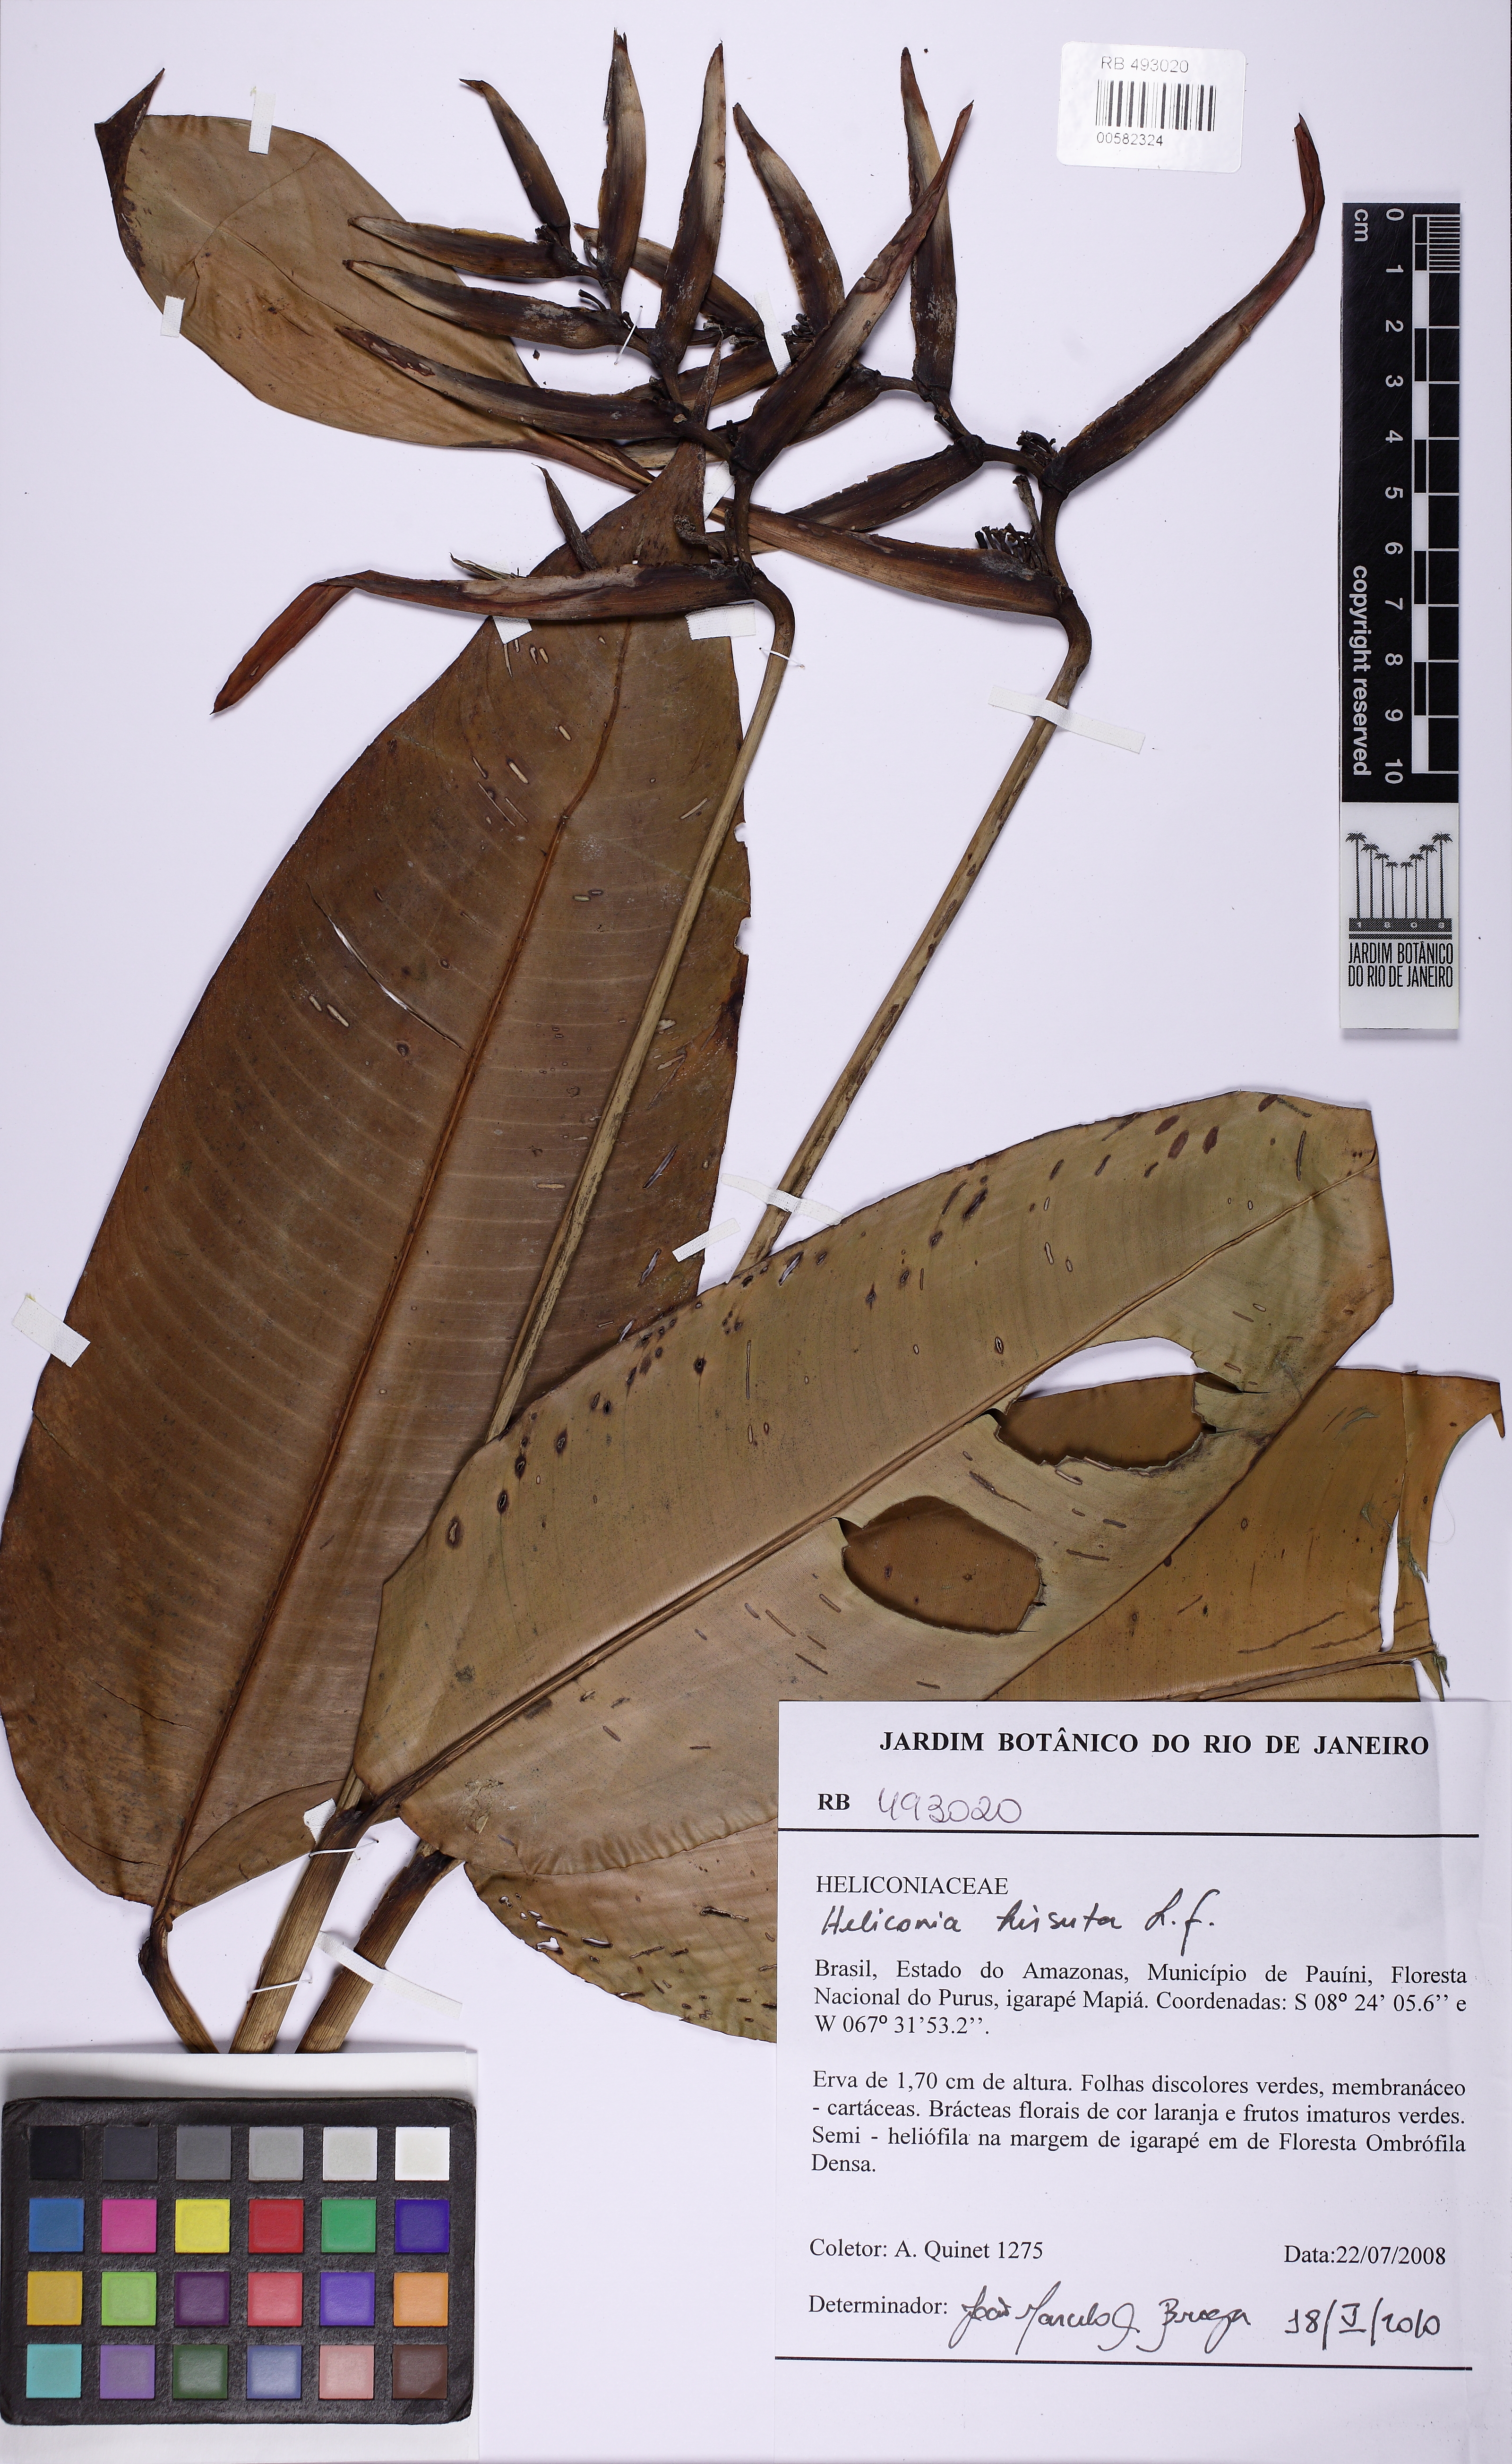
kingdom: Plantae
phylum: Tracheophyta
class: Liliopsida
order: Zingiberales
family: Heliconiaceae
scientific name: Heliconiaceae
